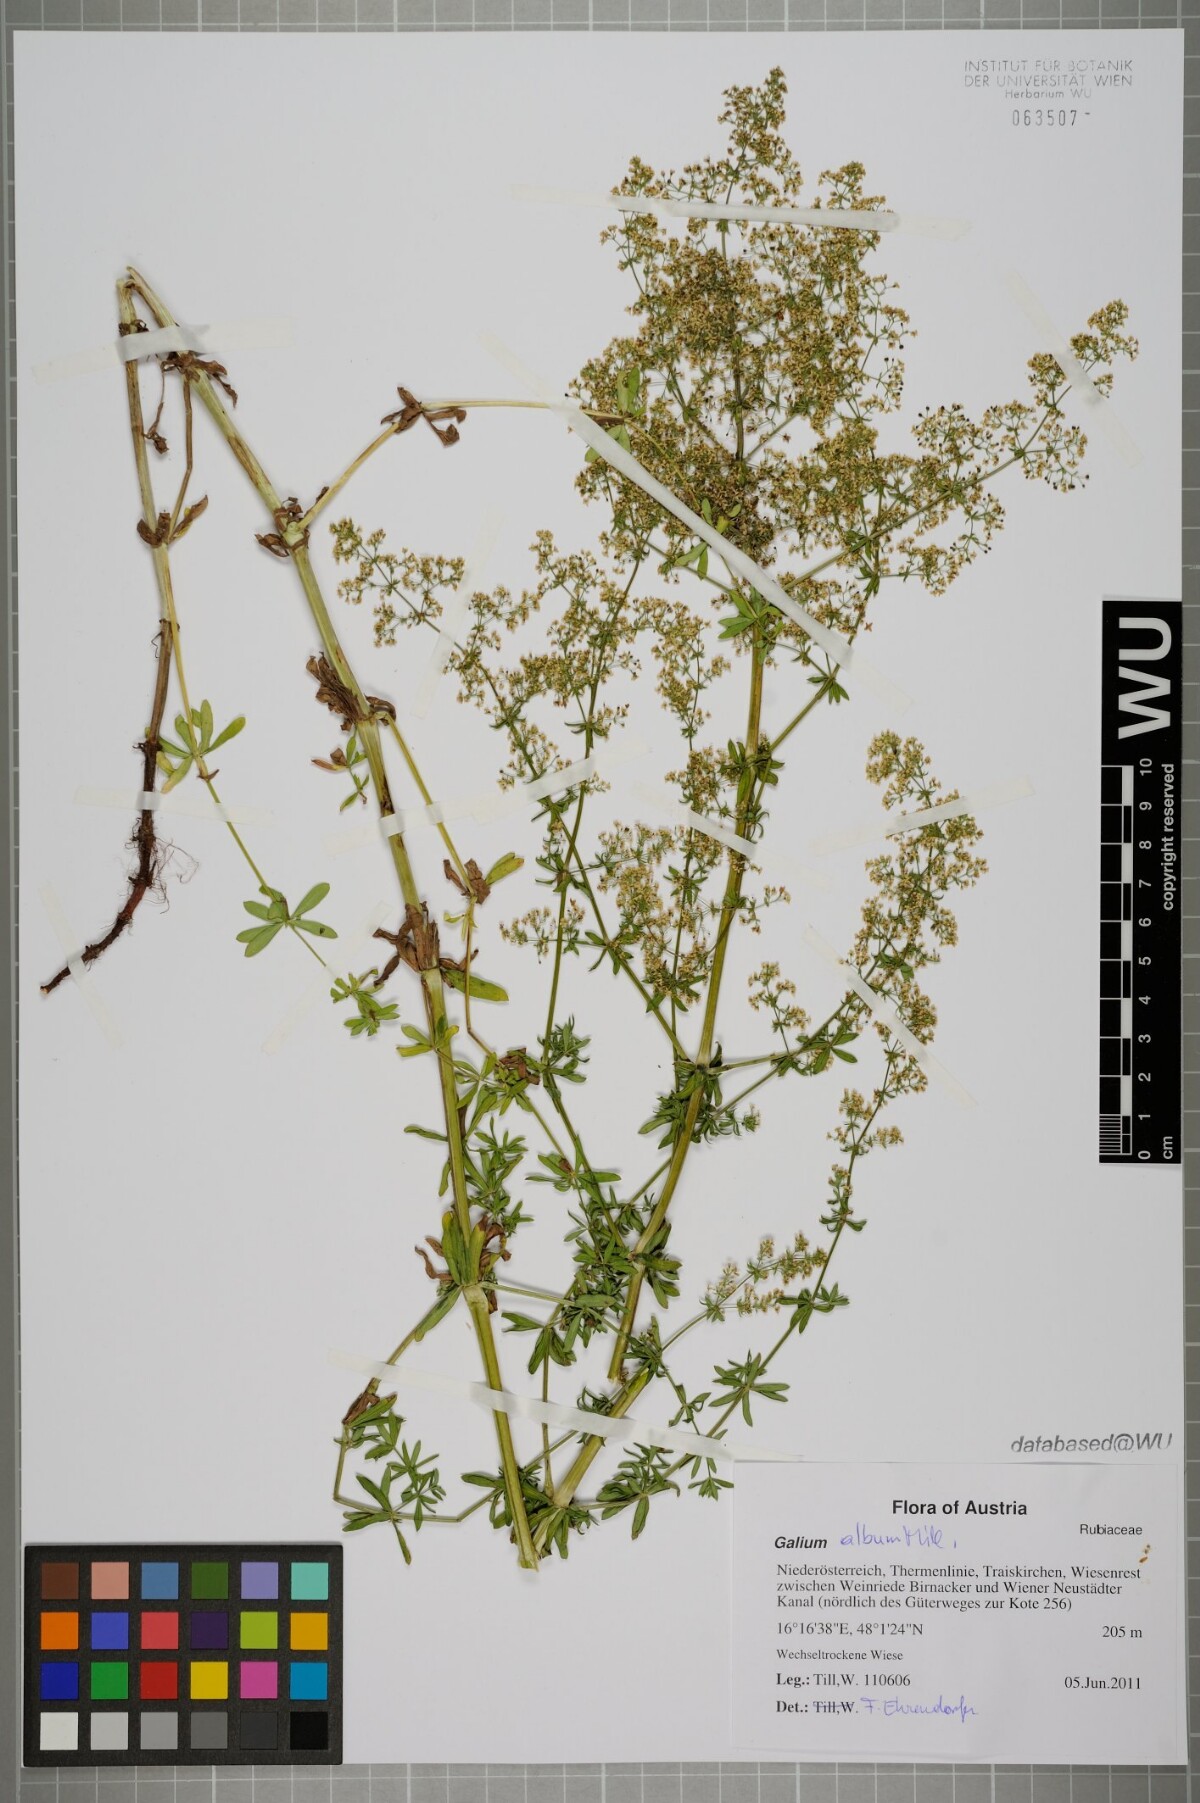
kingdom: Plantae
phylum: Tracheophyta
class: Magnoliopsida
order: Gentianales
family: Rubiaceae
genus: Galium
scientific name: Galium album
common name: White bedstraw
